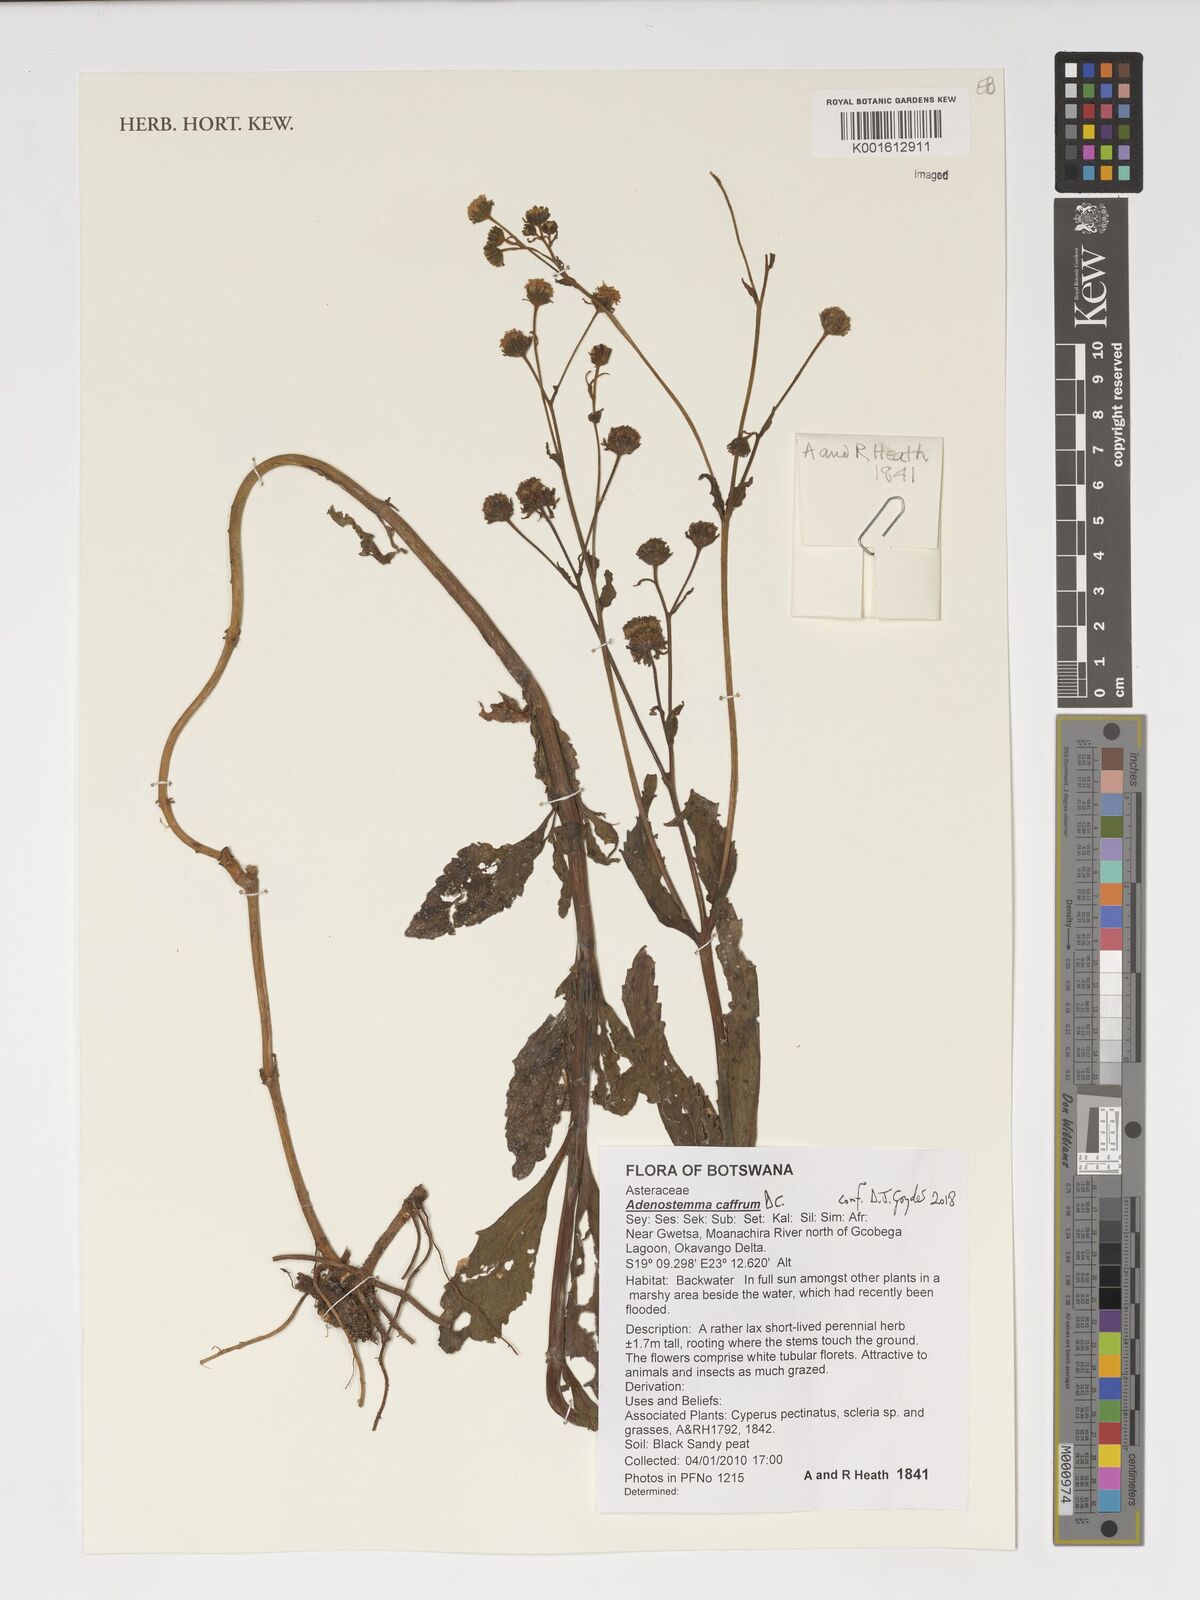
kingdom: Plantae
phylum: Tracheophyta
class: Magnoliopsida
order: Asterales
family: Asteraceae
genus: Adenostemma
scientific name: Adenostemma caffrum
